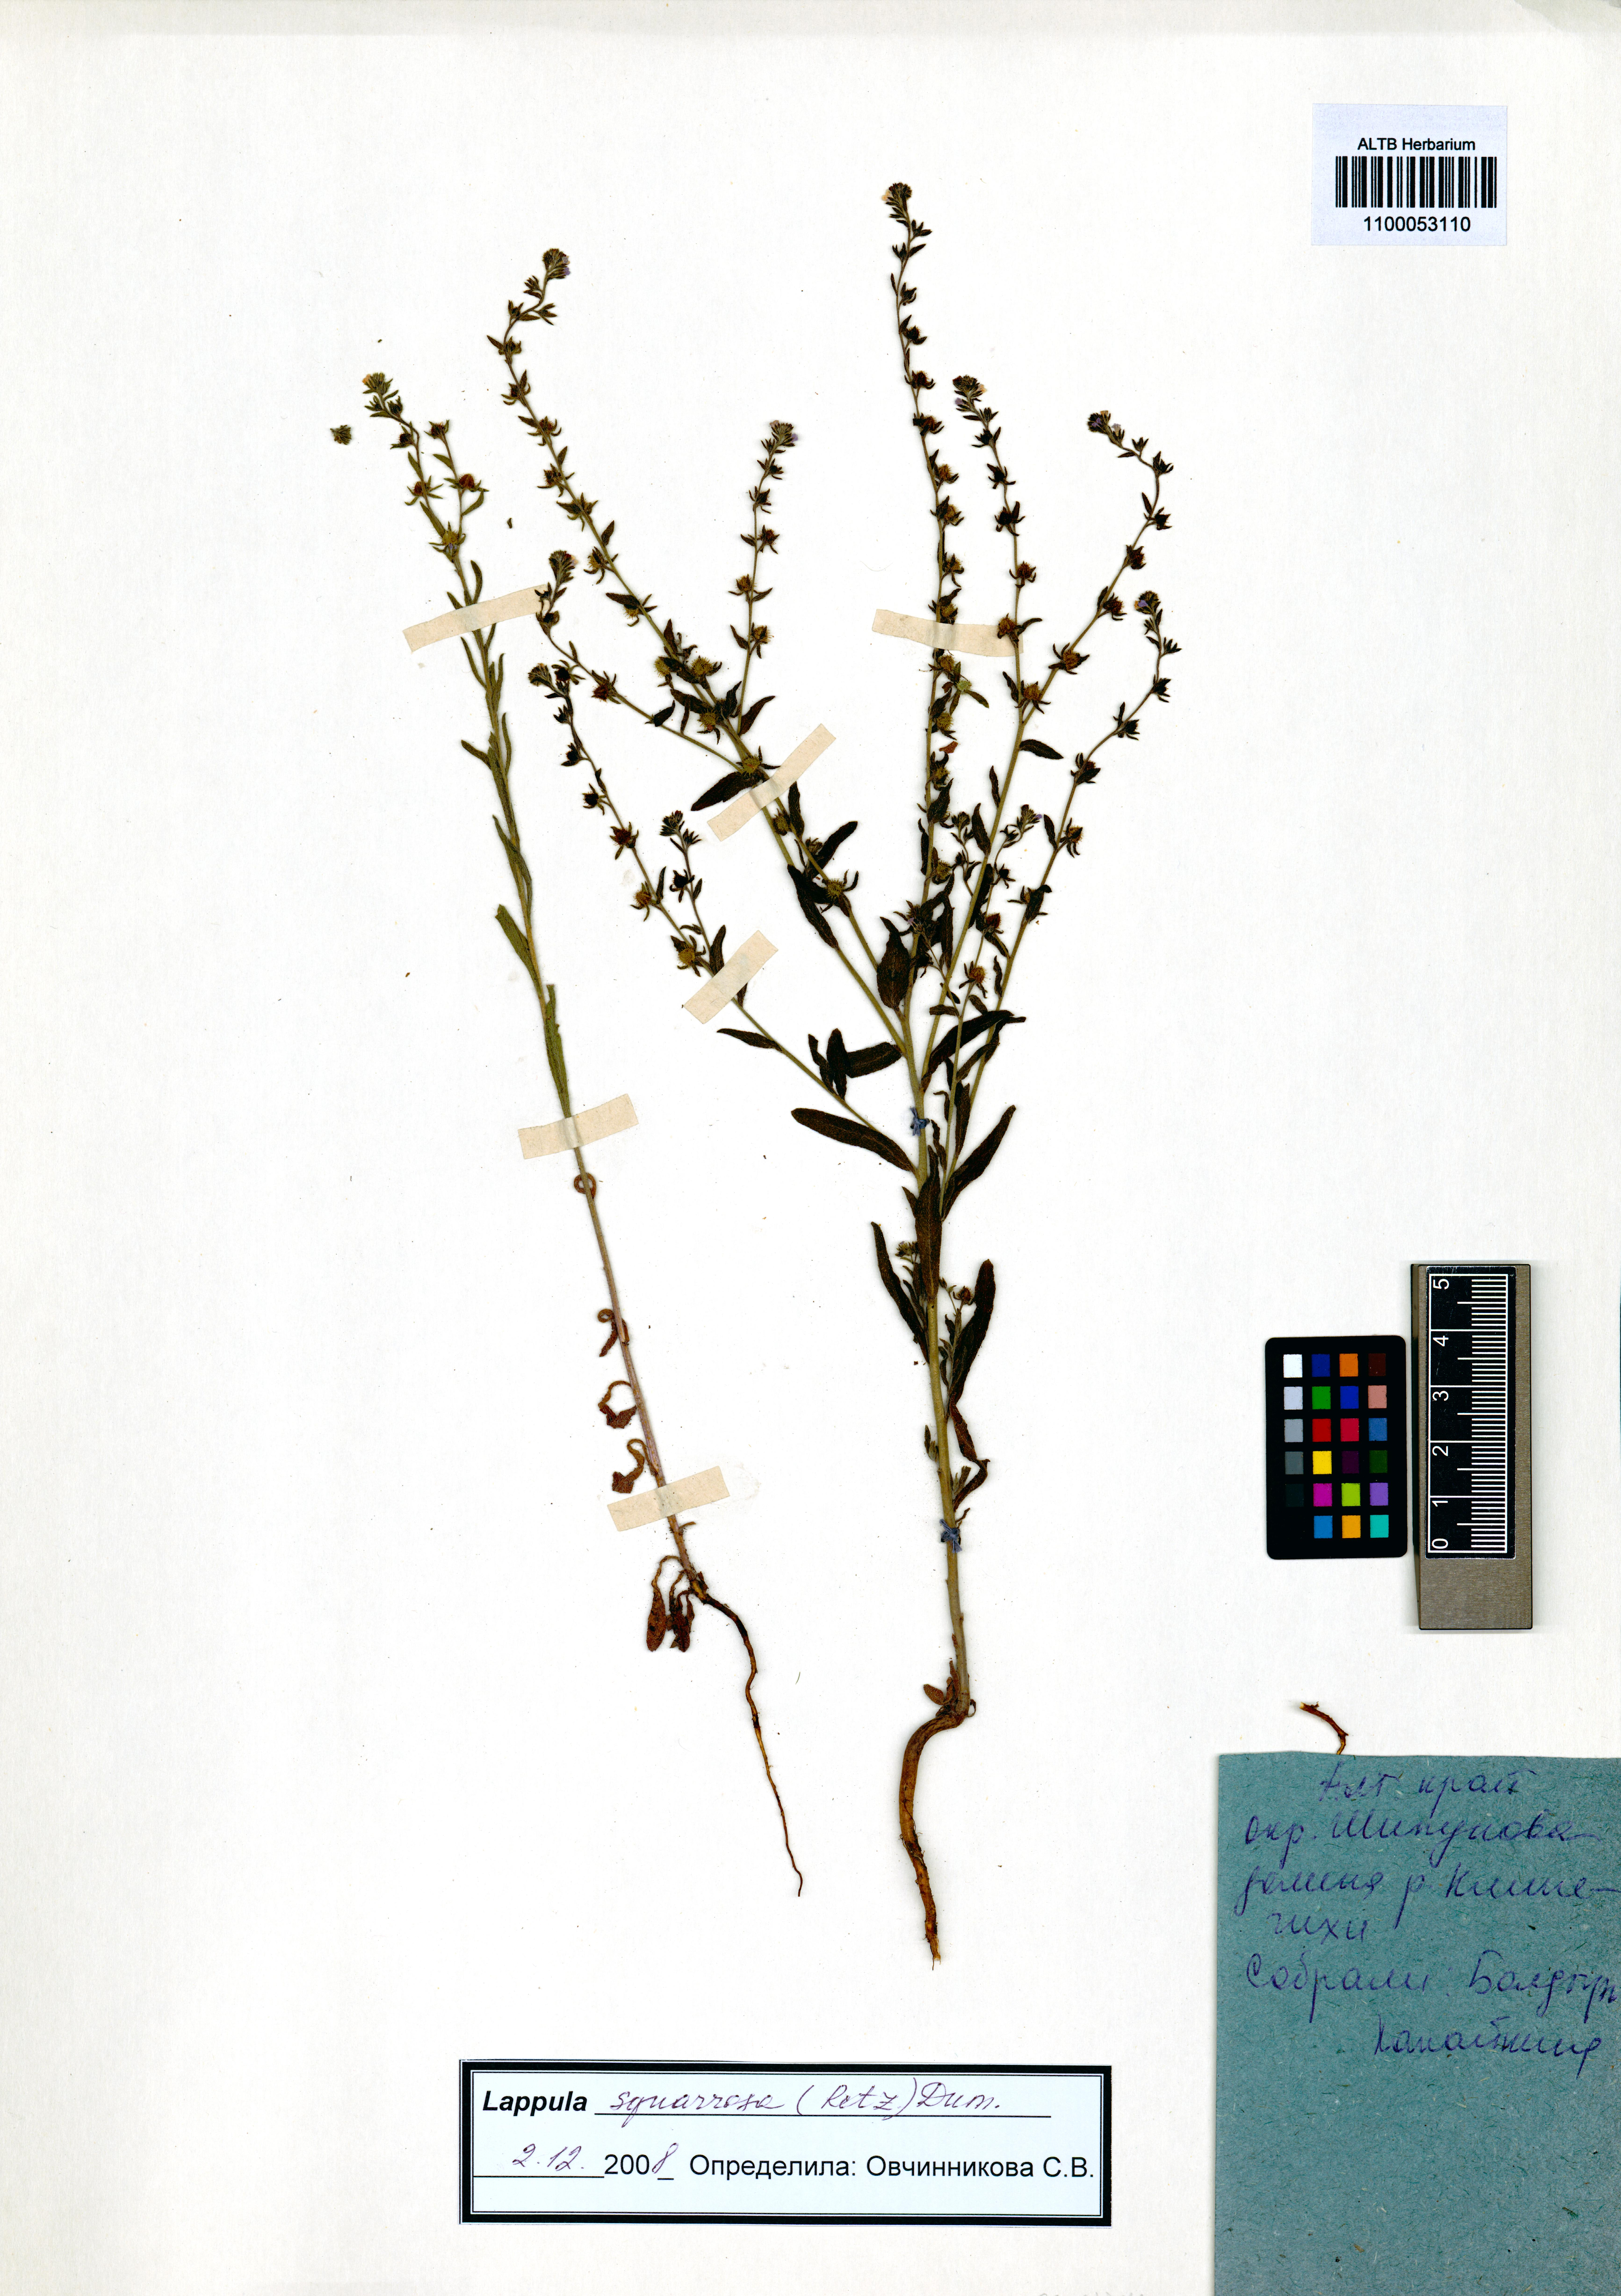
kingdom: Plantae
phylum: Tracheophyta
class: Magnoliopsida
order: Boraginales
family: Boraginaceae
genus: Lappula
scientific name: Lappula squarrosa
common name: European stickseed
